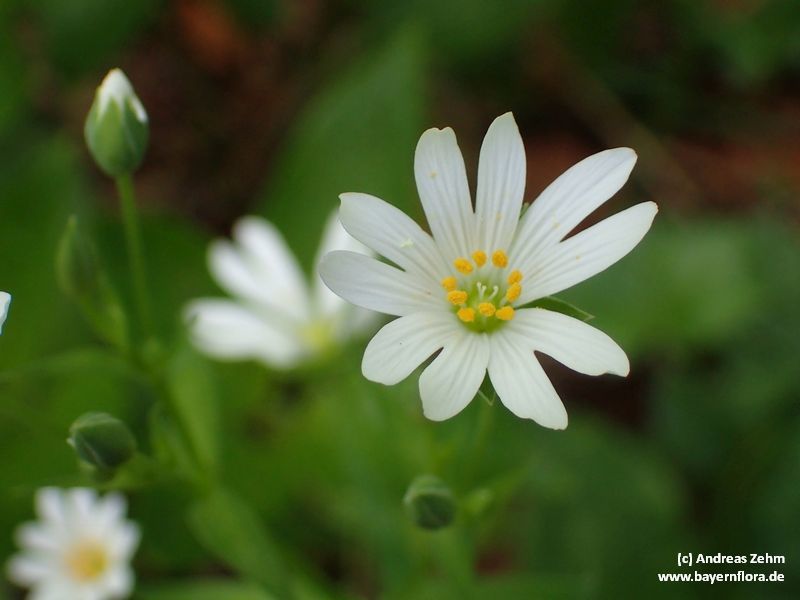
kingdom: Plantae
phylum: Tracheophyta
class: Magnoliopsida
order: Caryophyllales
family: Caryophyllaceae
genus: Rabelera
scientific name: Rabelera holostea
